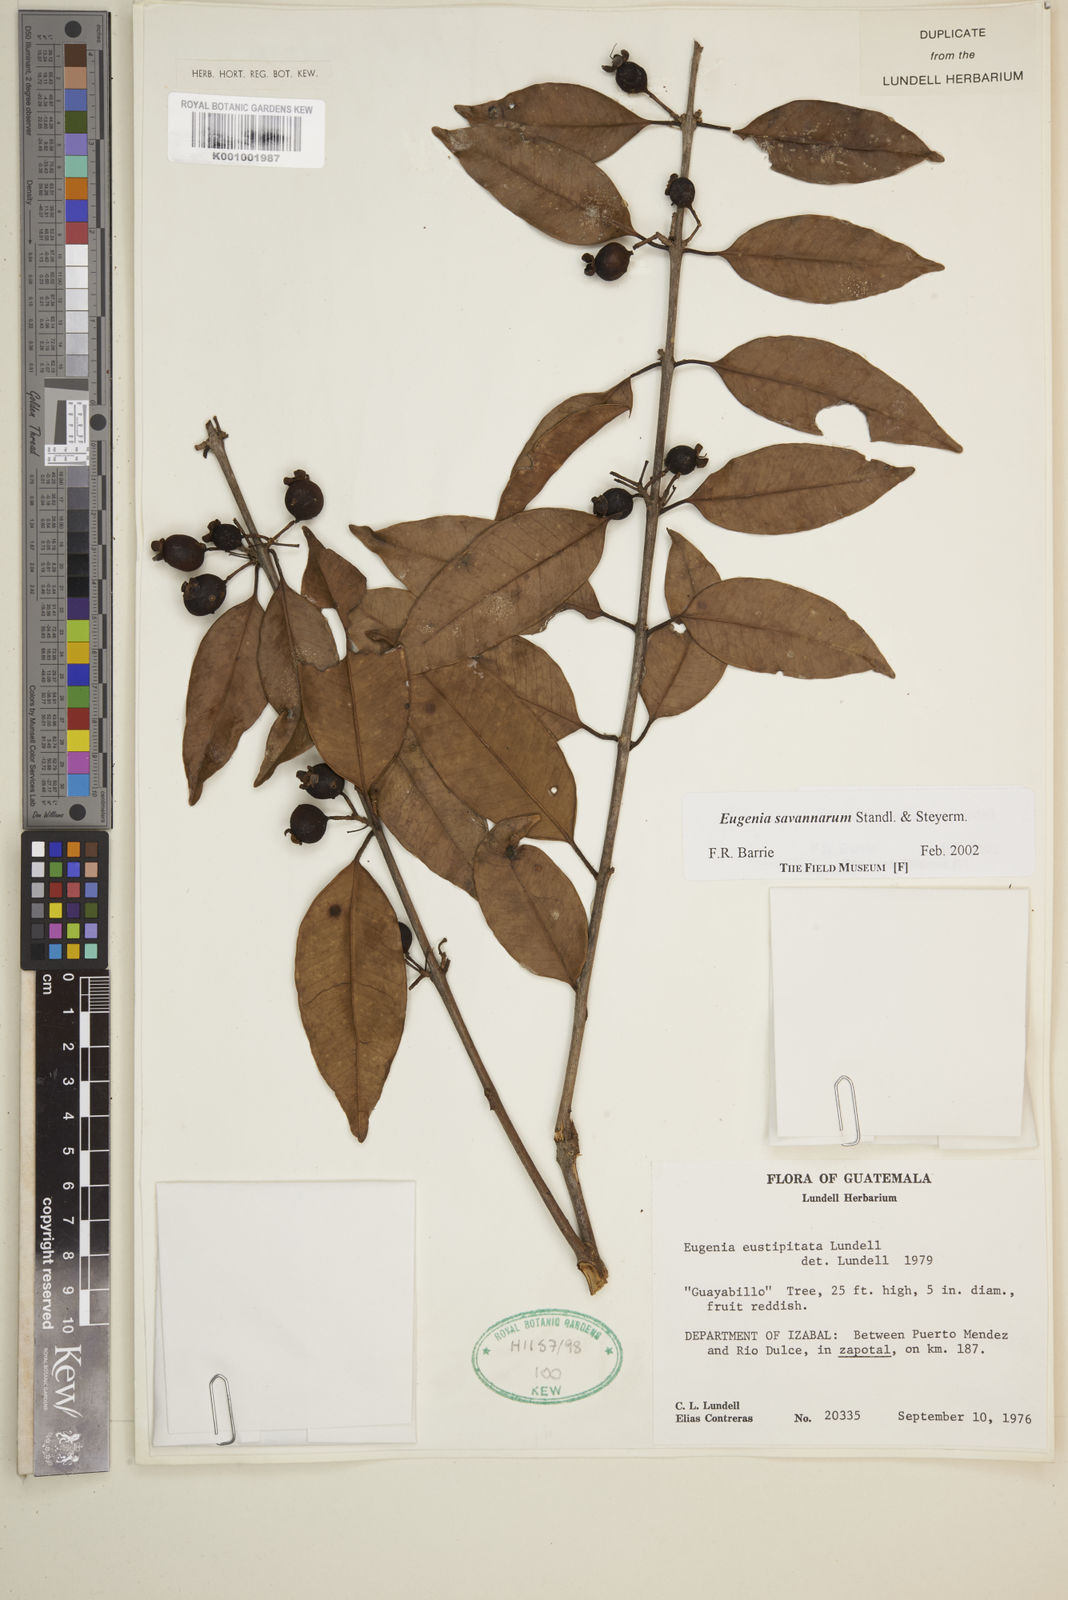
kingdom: Plantae
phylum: Tracheophyta
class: Magnoliopsida
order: Myrtales
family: Myrtaceae
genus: Eugenia
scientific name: Eugenia savannarum
